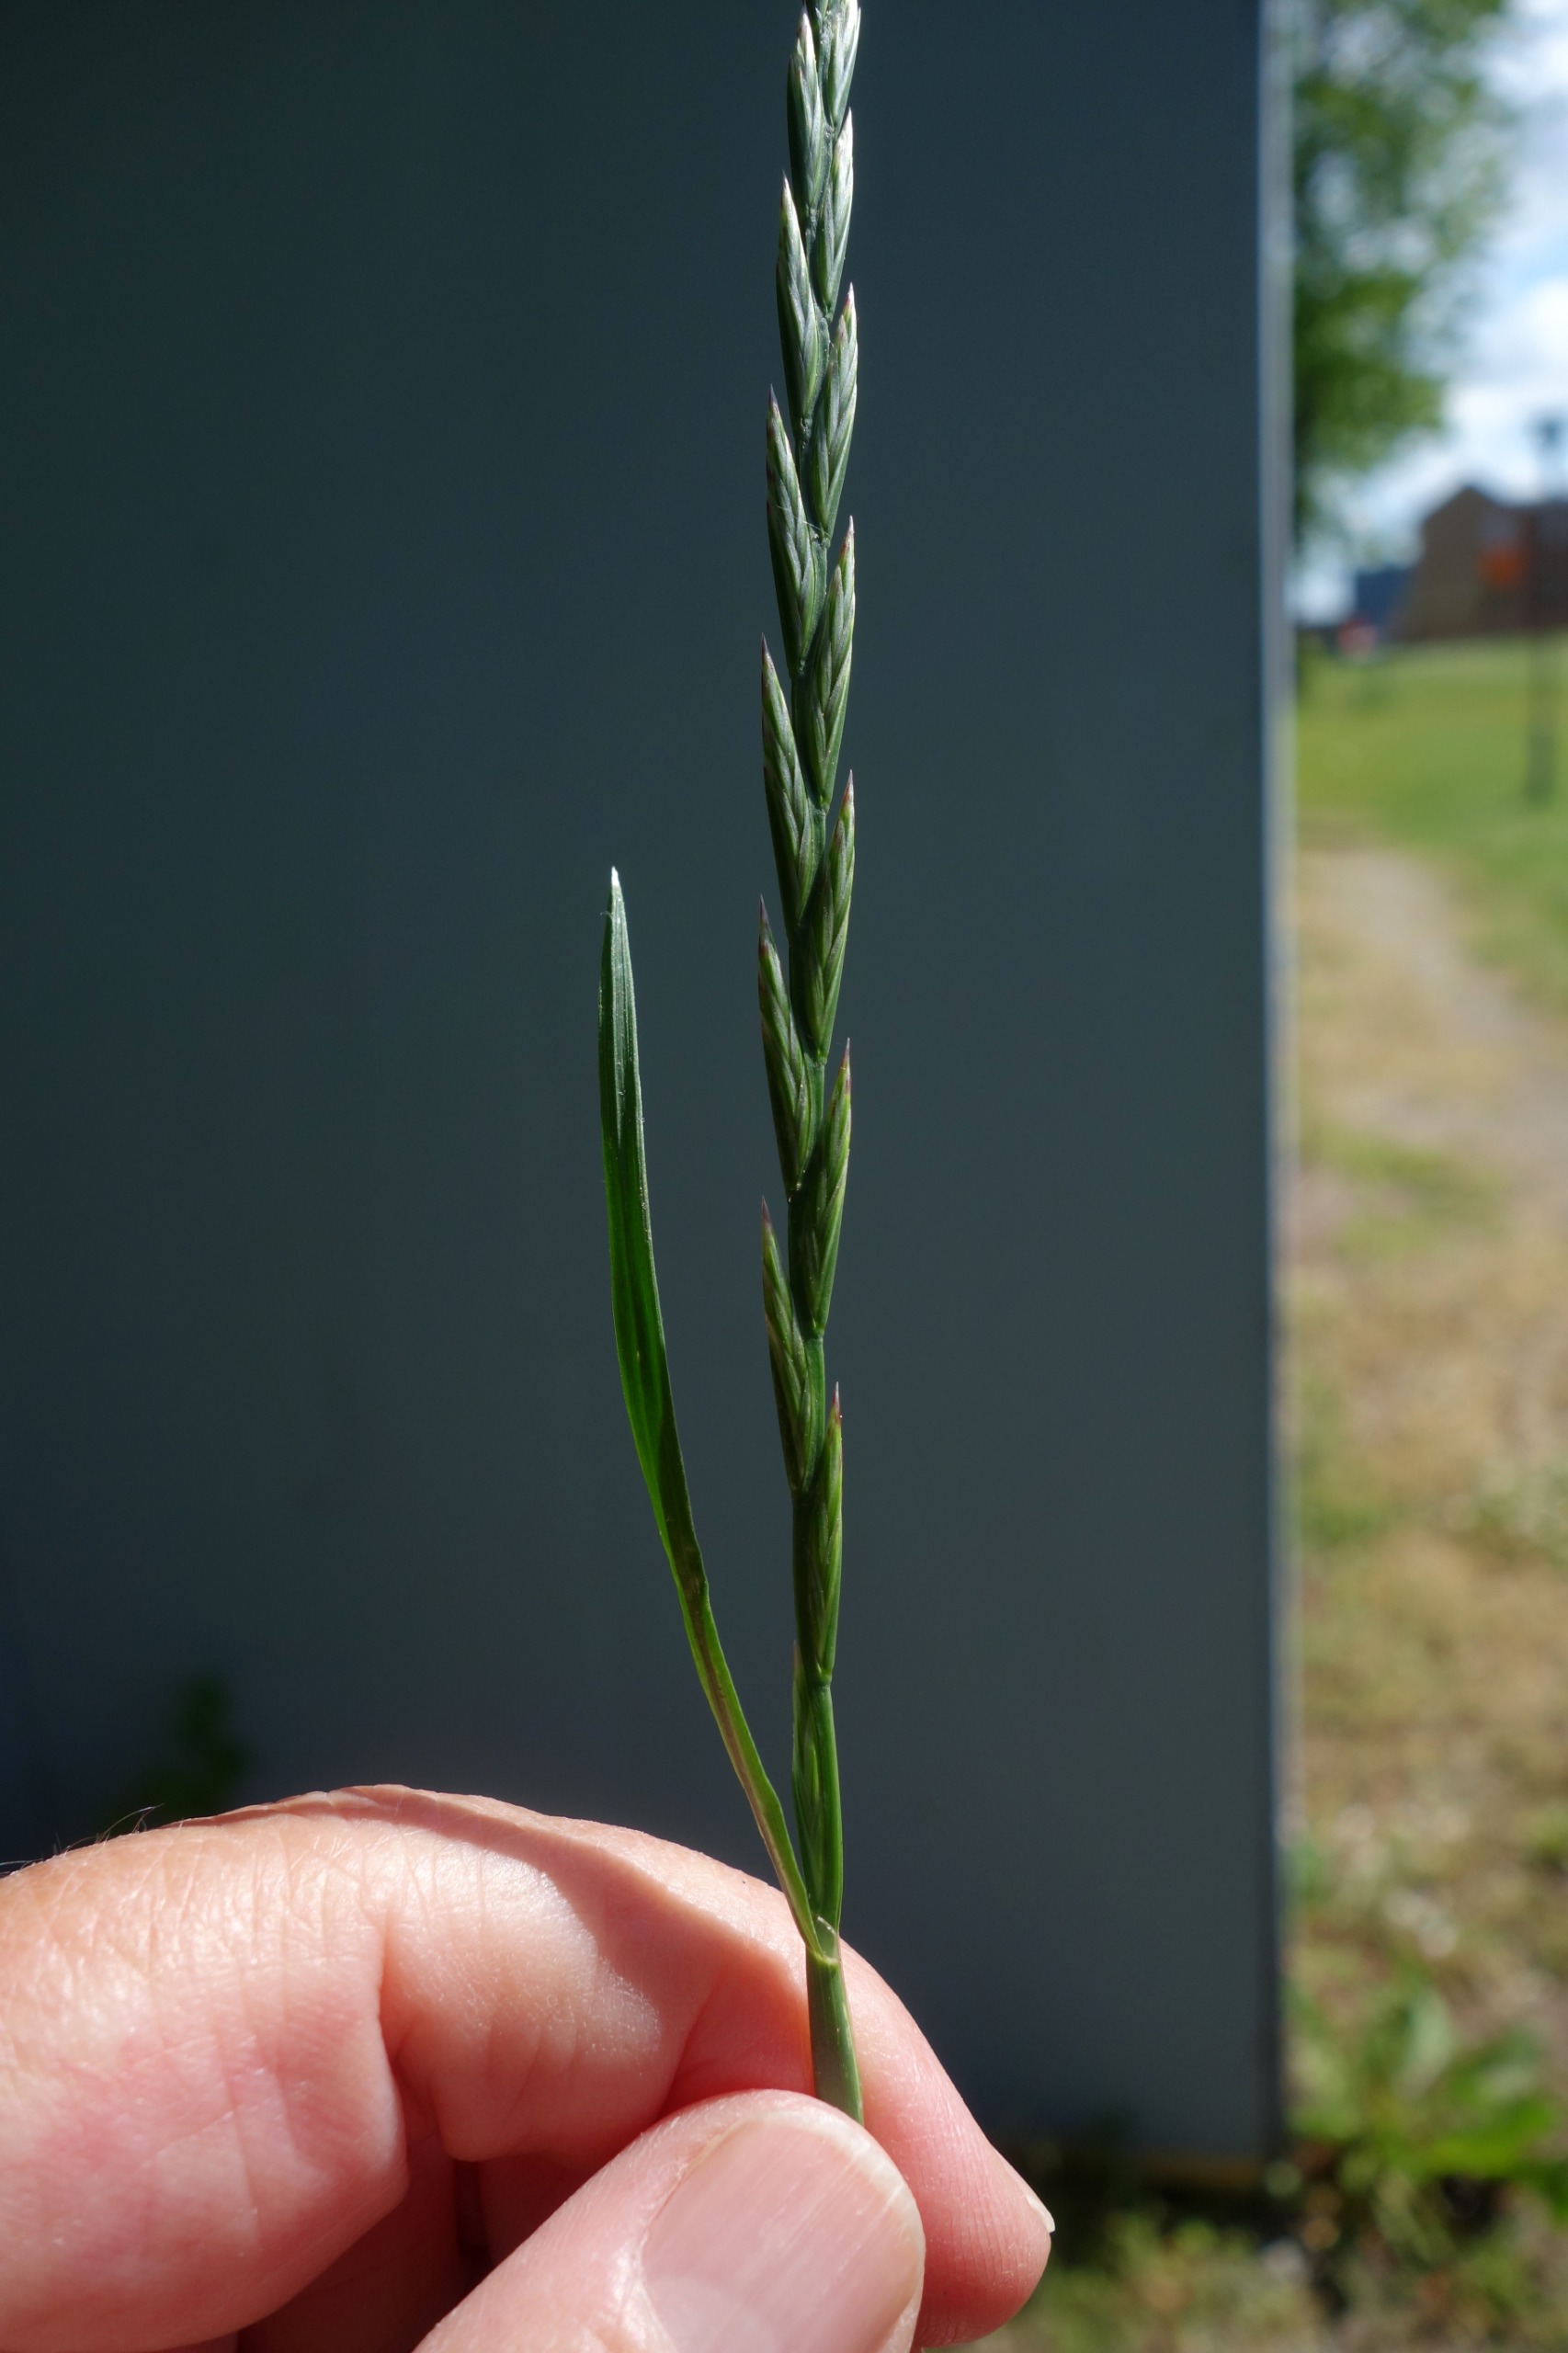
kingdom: Plantae
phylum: Tracheophyta
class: Liliopsida
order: Poales
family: Poaceae
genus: Lolium
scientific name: Lolium perenne
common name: Almindelig rajgræs
